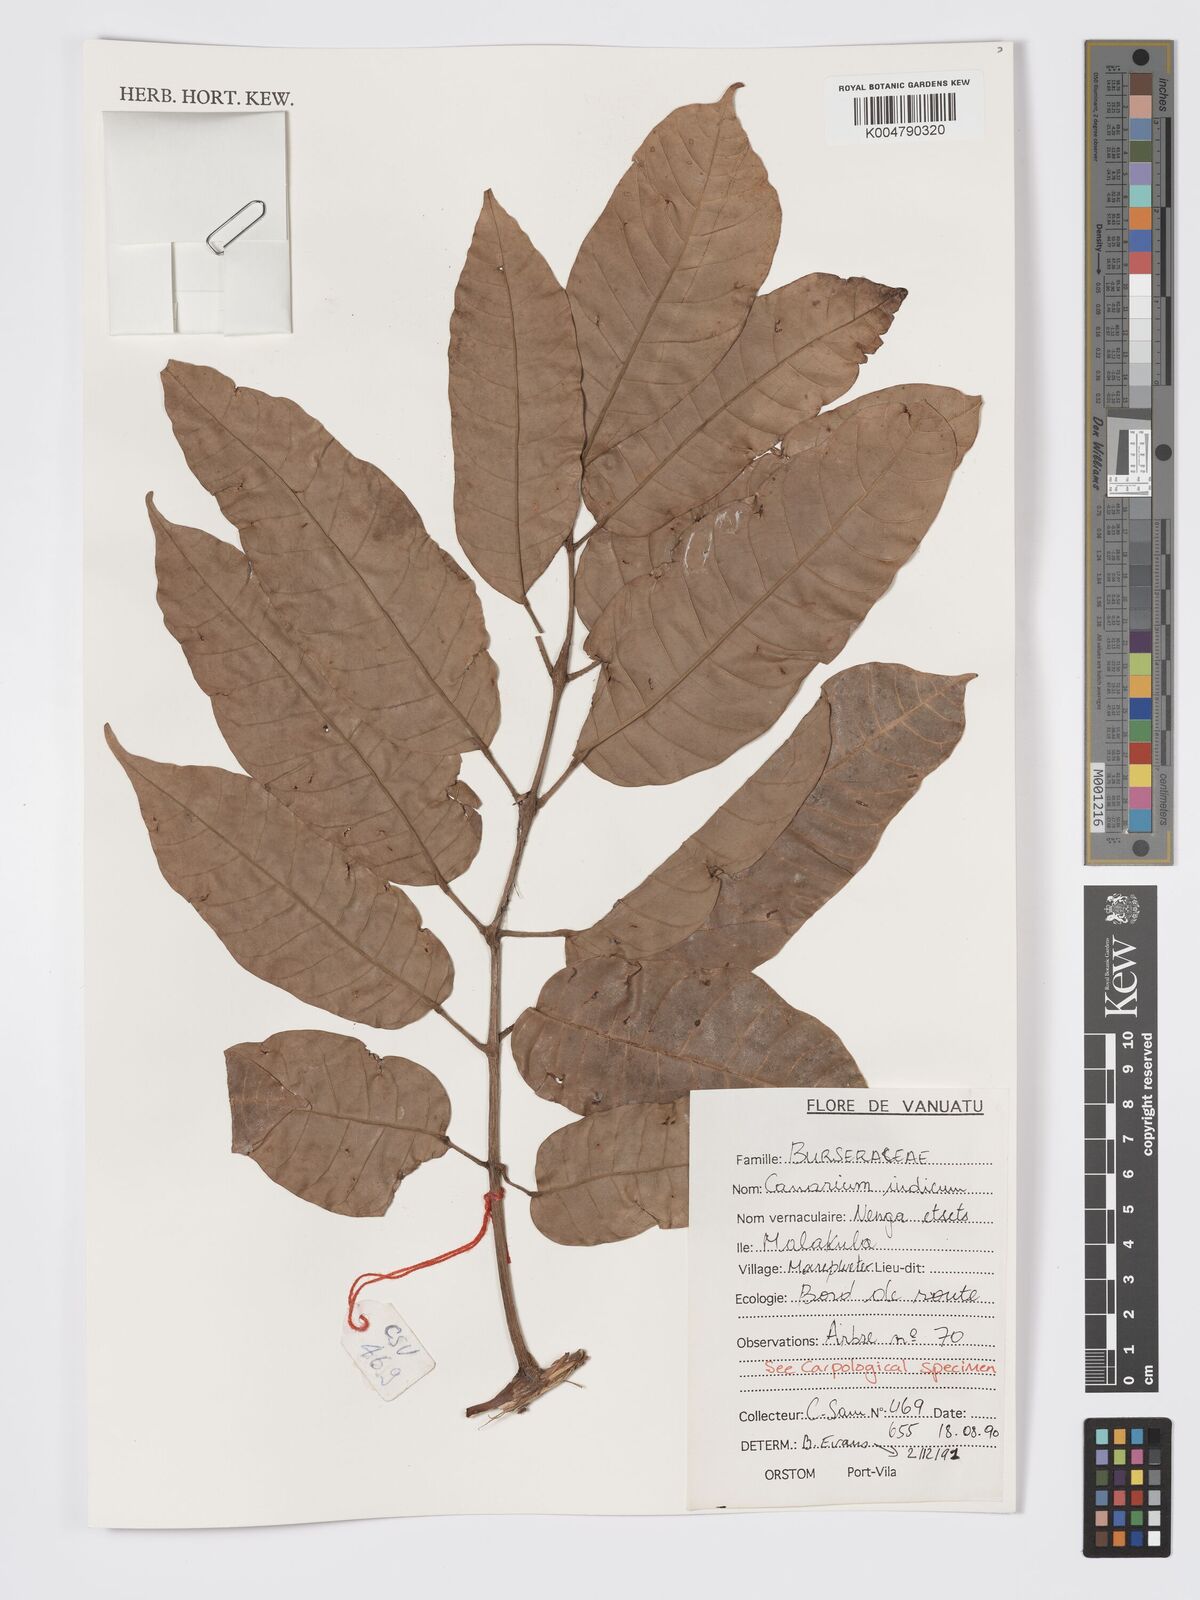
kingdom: Plantae
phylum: Tracheophyta
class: Magnoliopsida
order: Sapindales
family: Burseraceae
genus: Canarium
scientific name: Canarium indicum
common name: Canarium-nut
